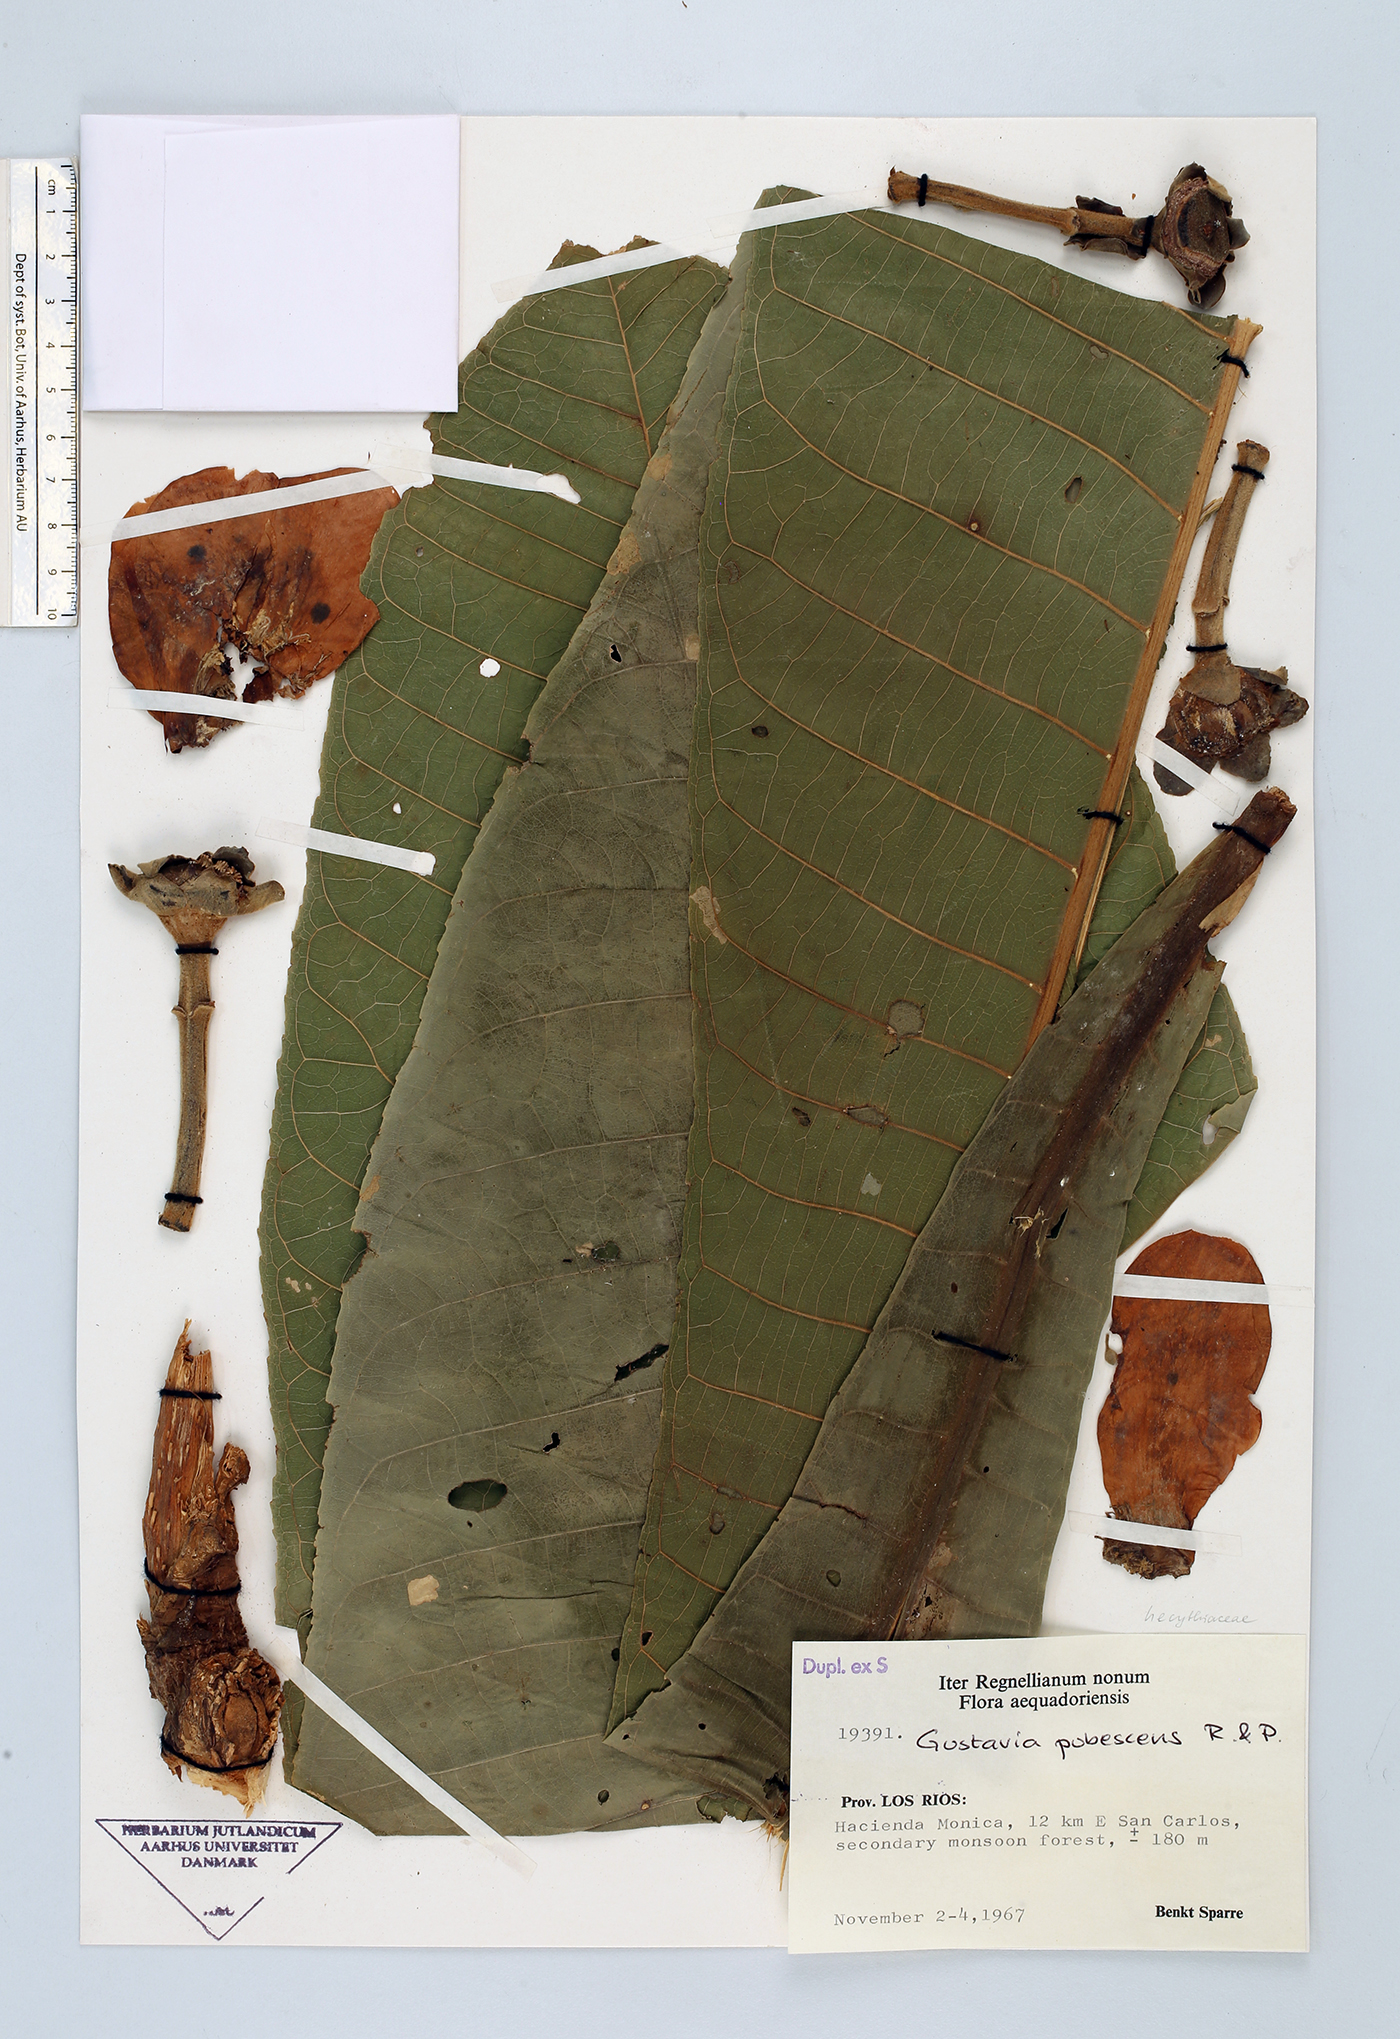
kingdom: Plantae
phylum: Tracheophyta
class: Magnoliopsida
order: Ericales
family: Lecythidaceae
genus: Gustavia
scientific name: Gustavia pubescens
